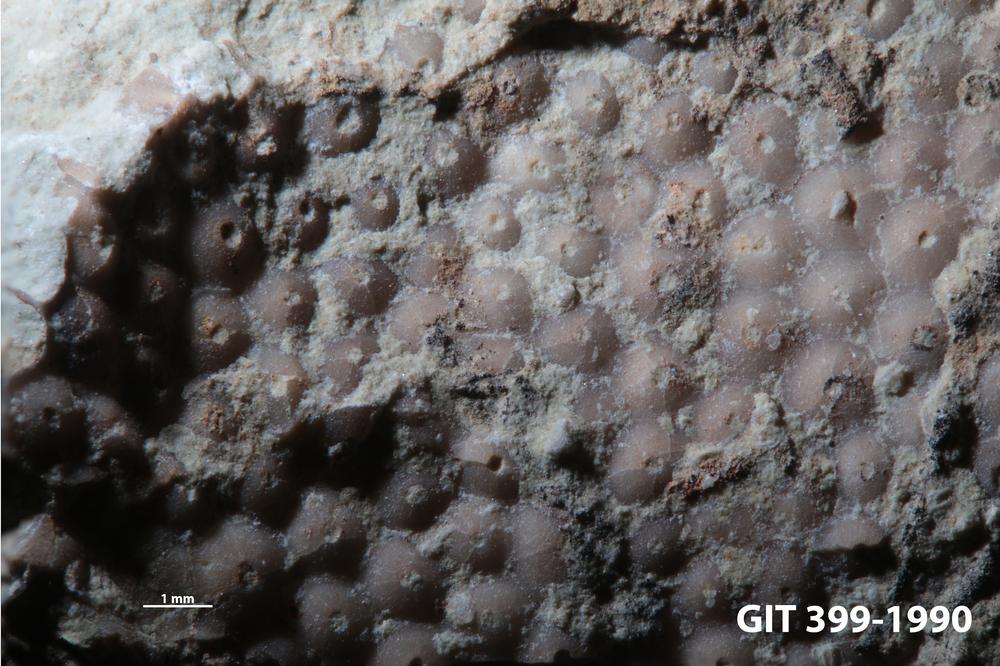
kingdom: Plantae
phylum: Chlorophyta
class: Ulvophyceae
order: Cyclocrinales
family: Cyclocrinaceae
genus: Mastopora
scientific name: Mastopora concava
